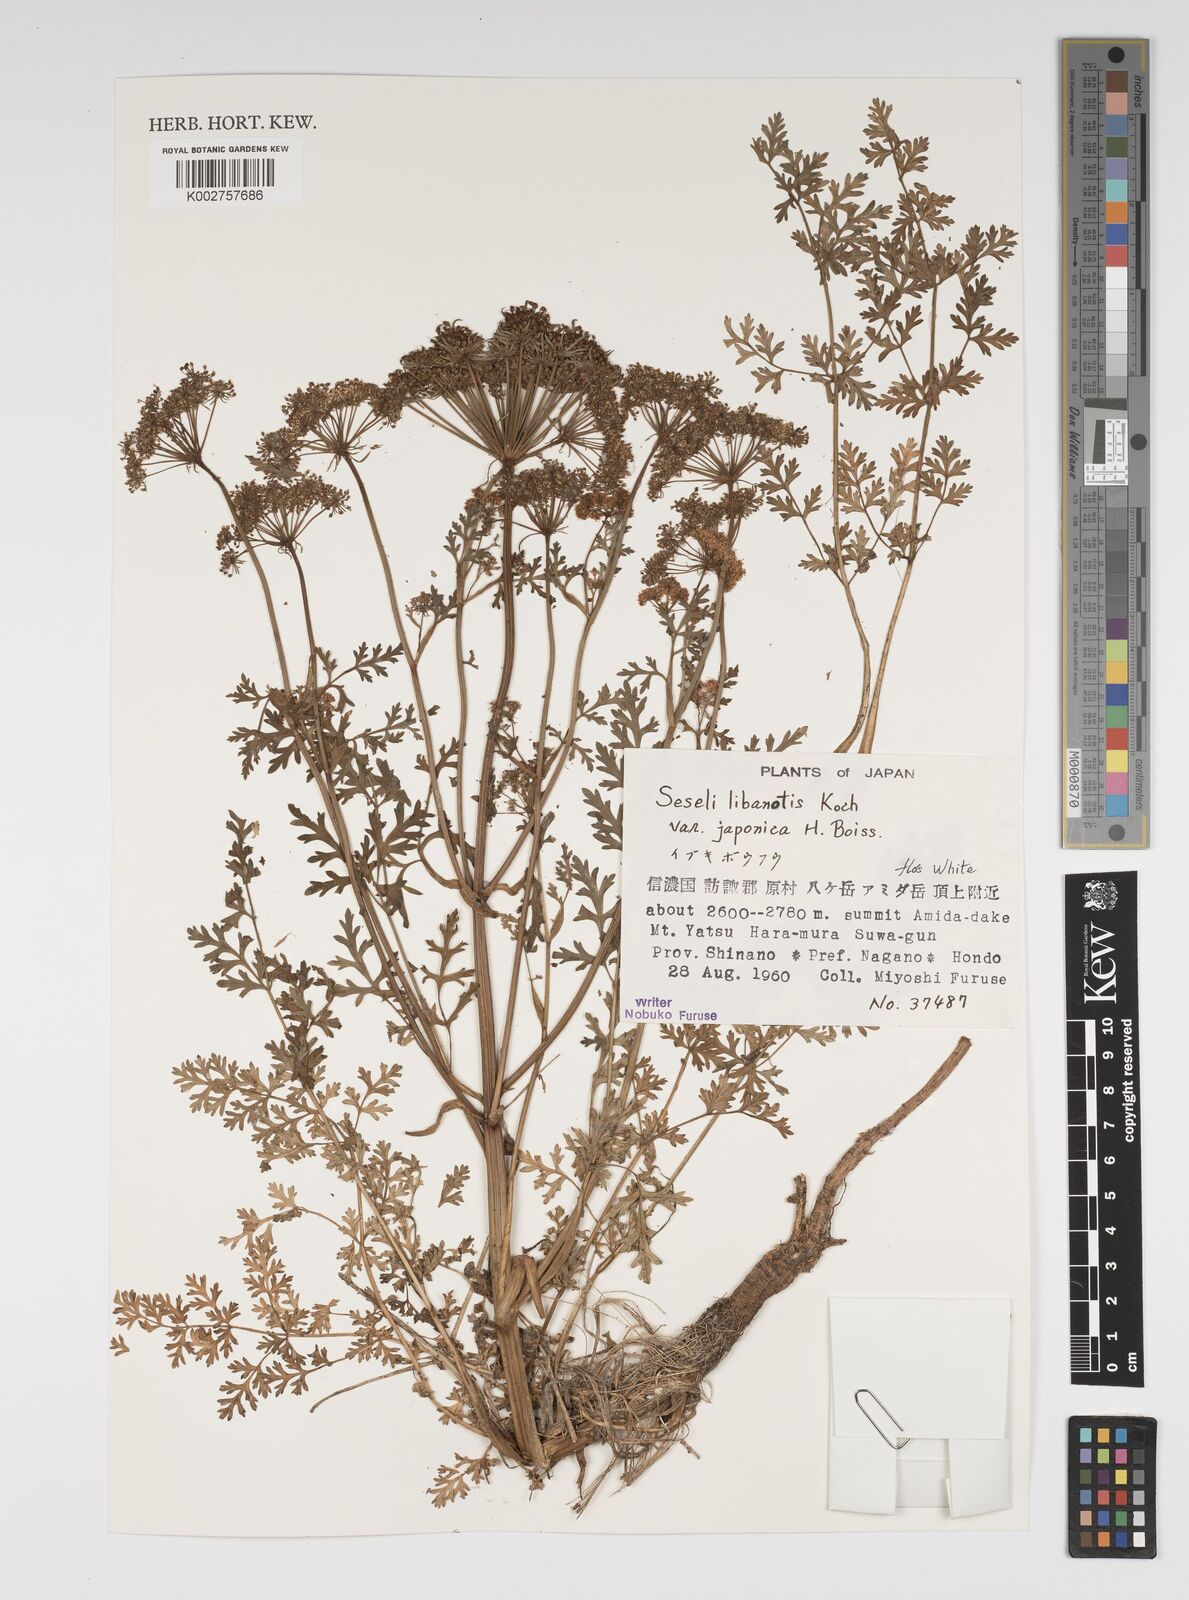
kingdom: Plantae
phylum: Tracheophyta
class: Magnoliopsida
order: Apiales
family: Apiaceae
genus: Seseli
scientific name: Seseli libanotis
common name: Mooncarrot
